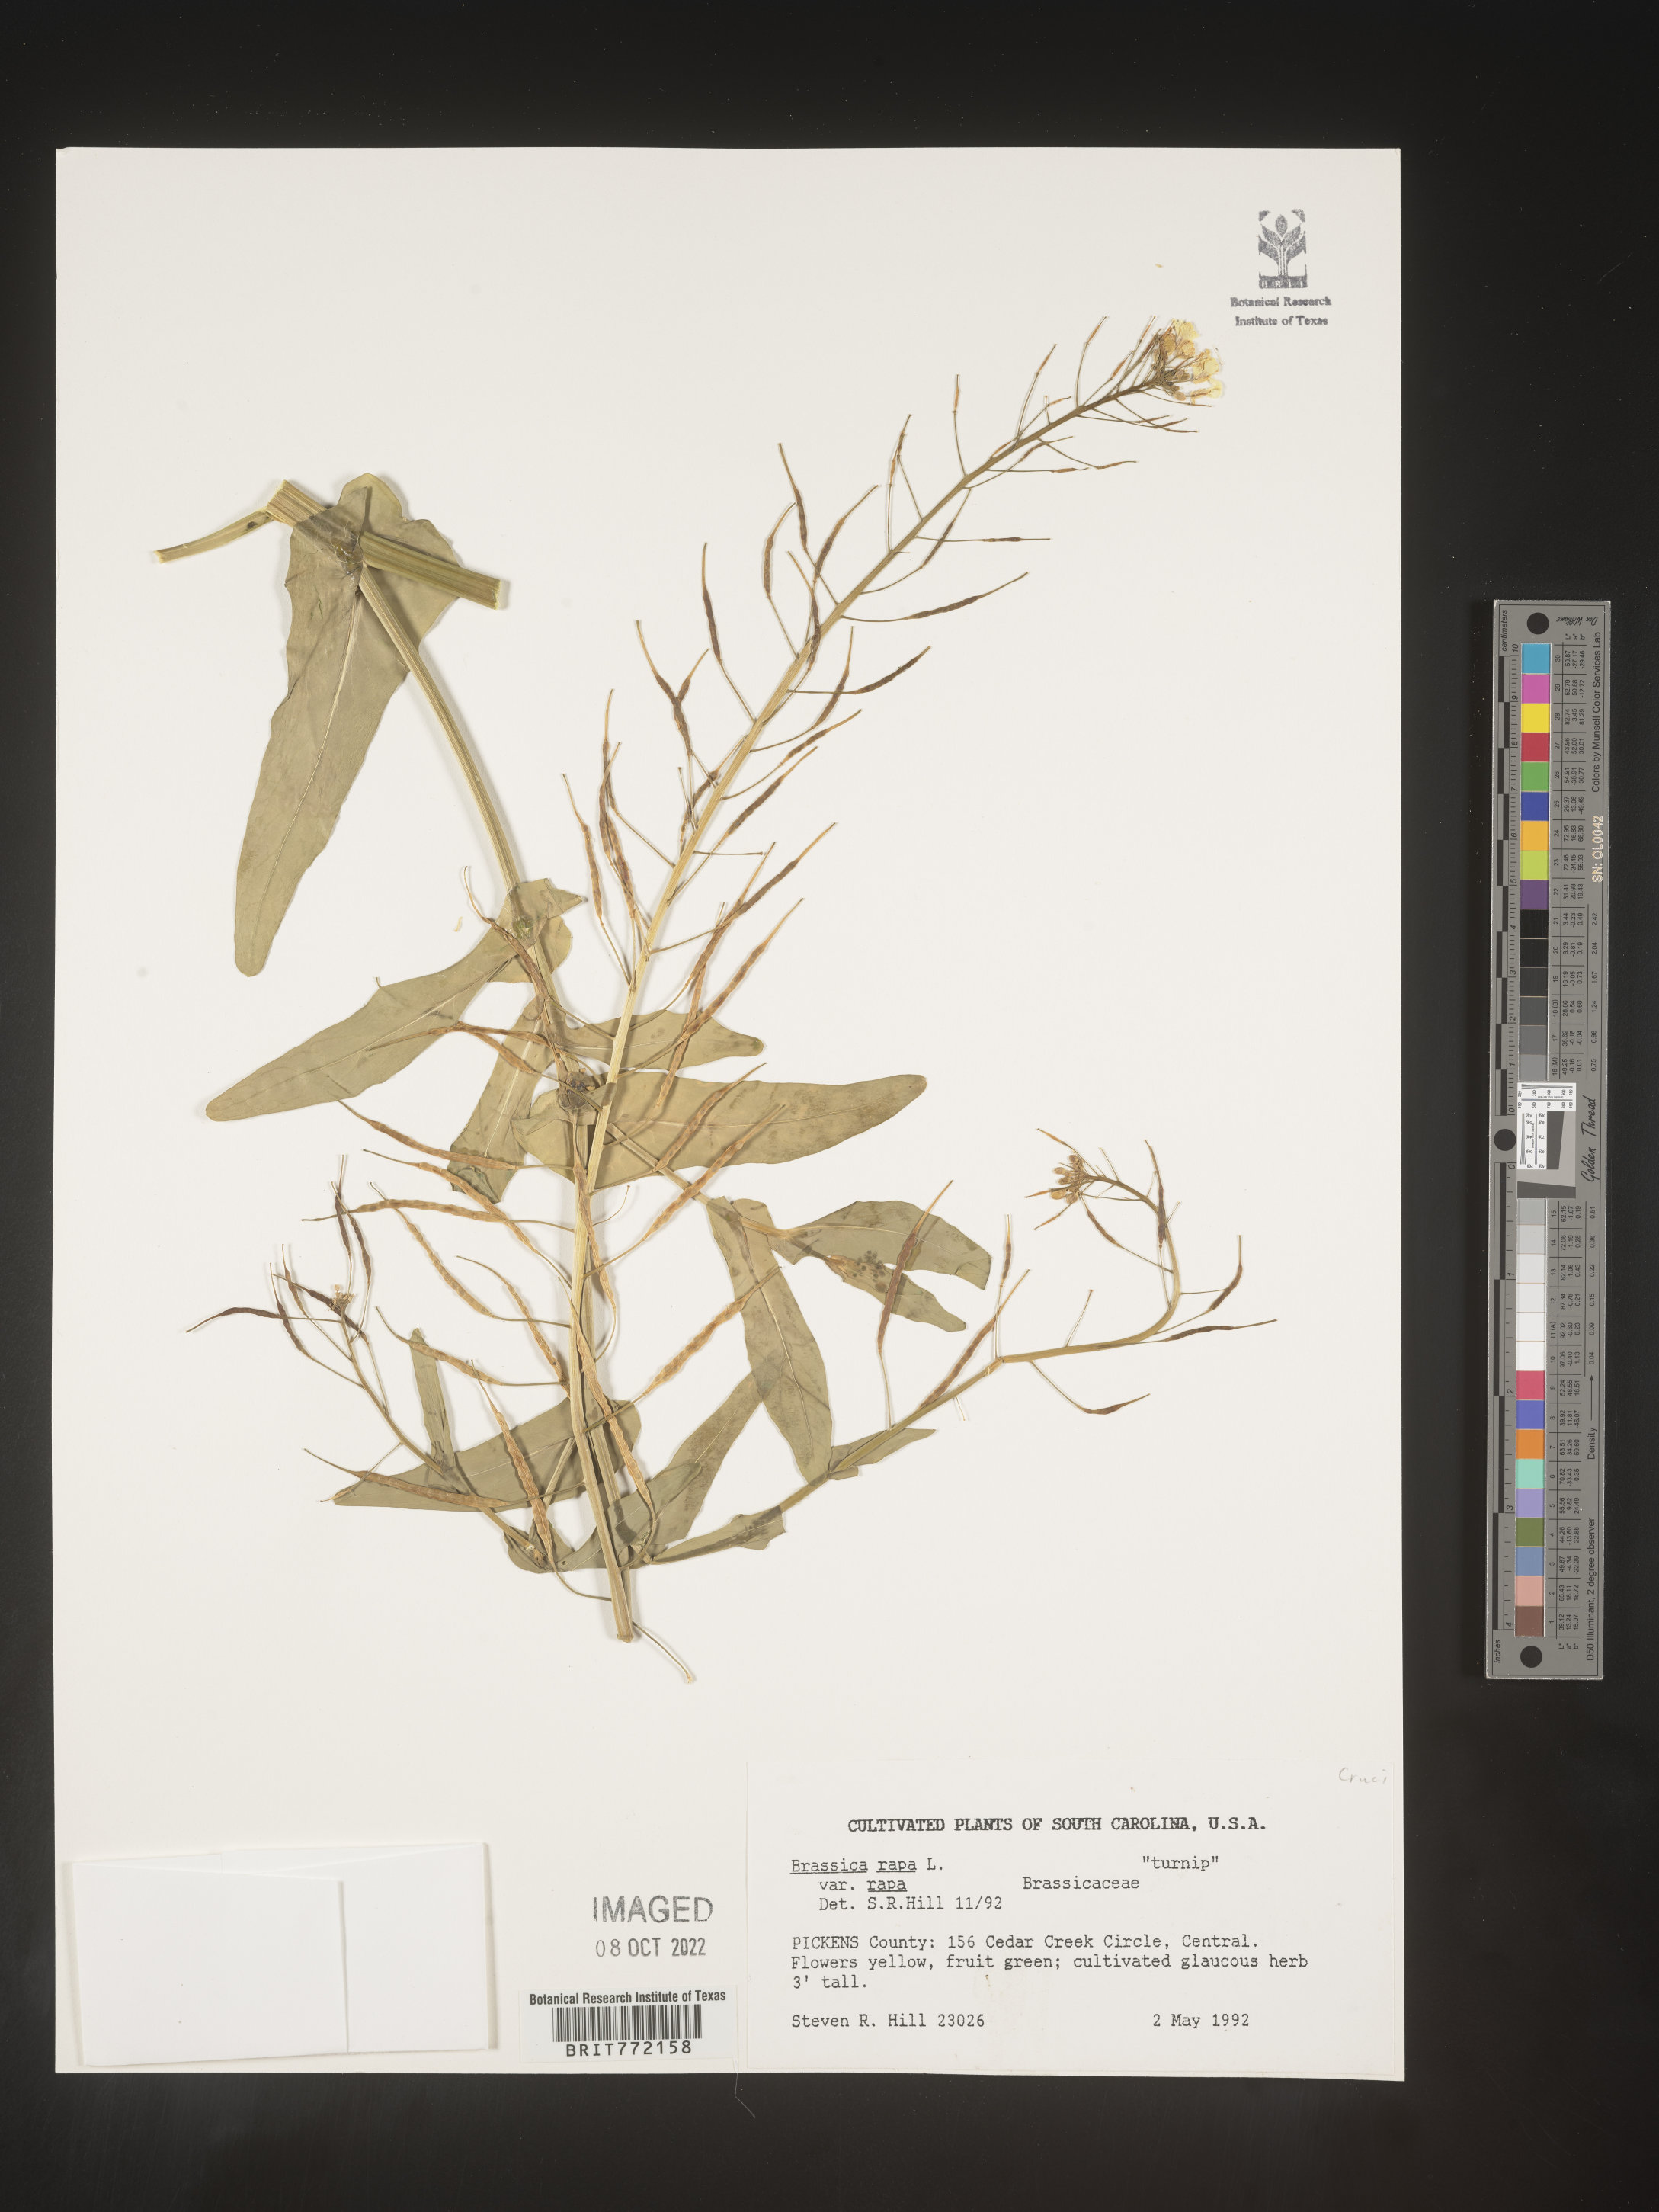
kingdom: Plantae
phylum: Tracheophyta
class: Magnoliopsida
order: Brassicales
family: Brassicaceae
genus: Brassica
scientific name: Brassica rapa
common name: Field mustard
